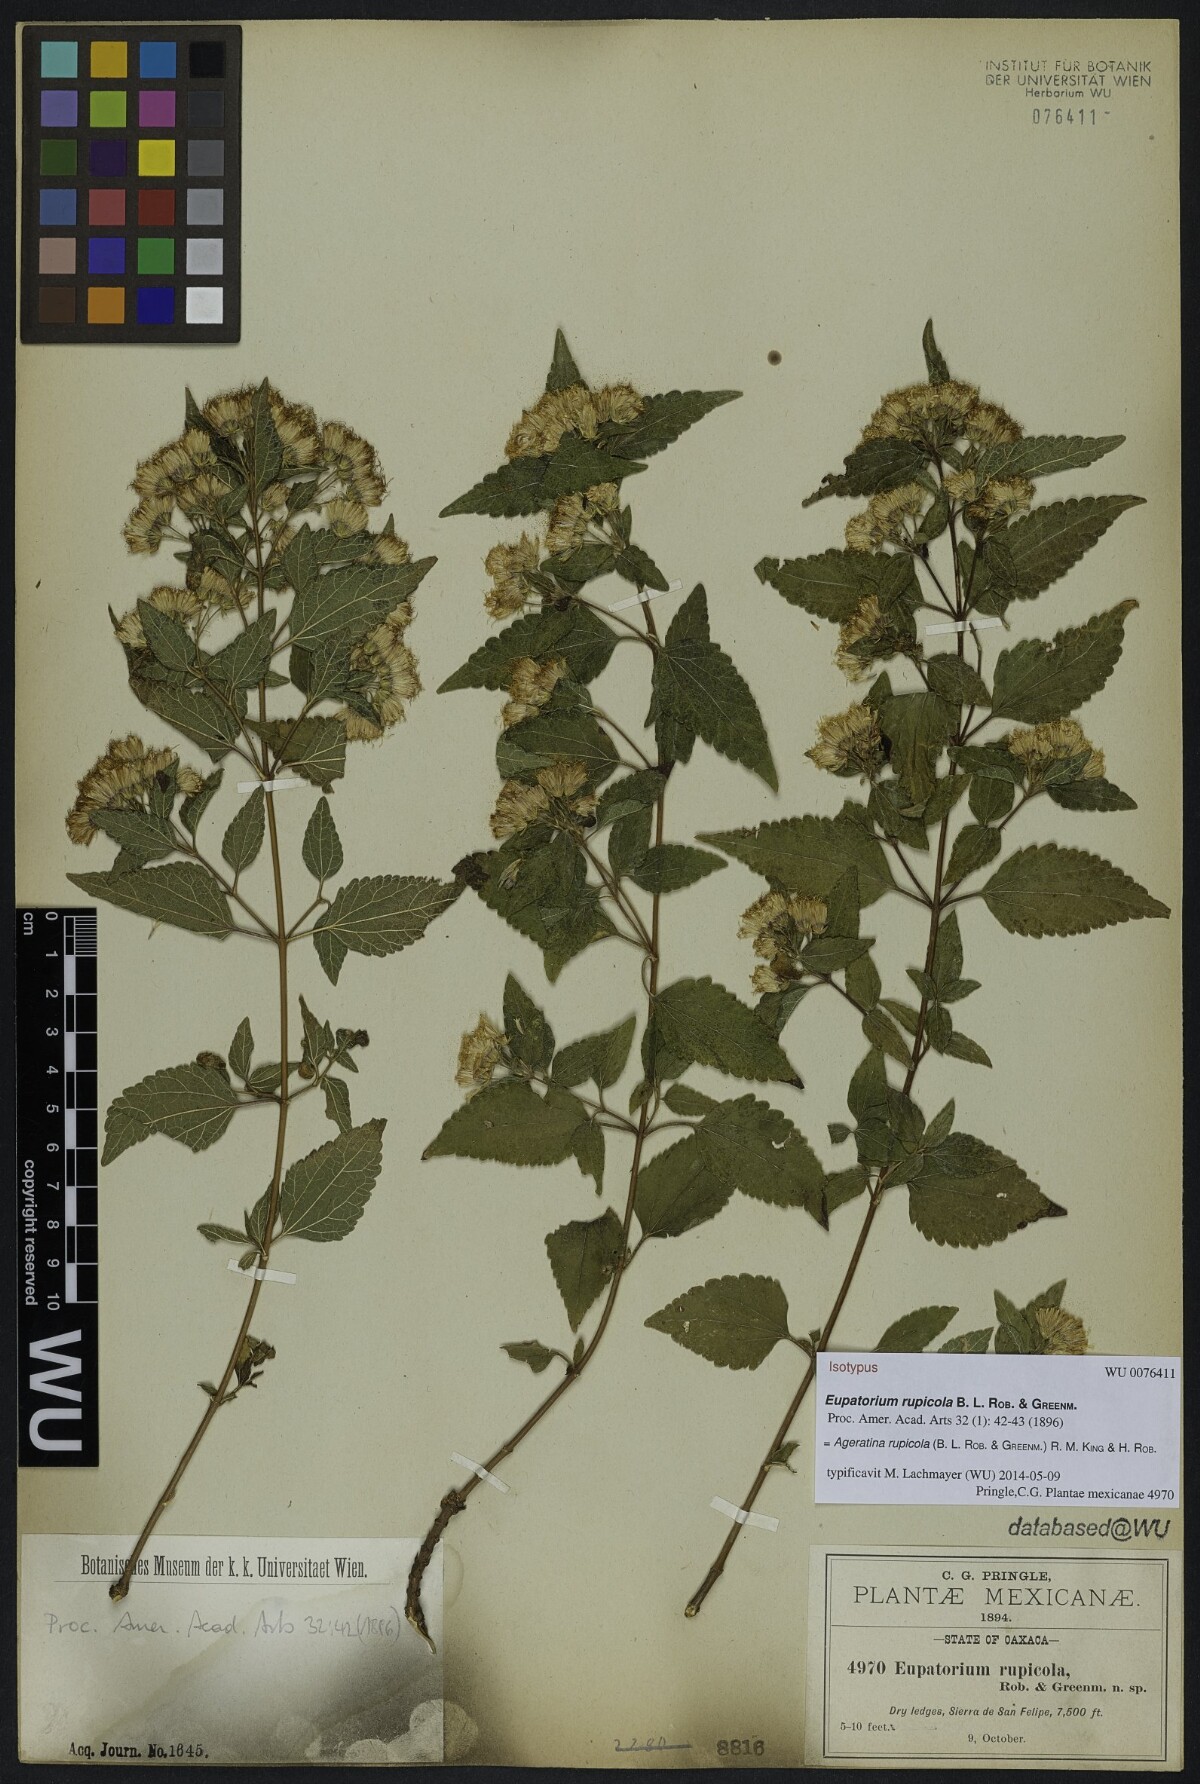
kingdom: Plantae
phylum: Tracheophyta
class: Magnoliopsida
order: Asterales
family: Asteraceae
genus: Ageratina
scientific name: Ageratina rupicola
